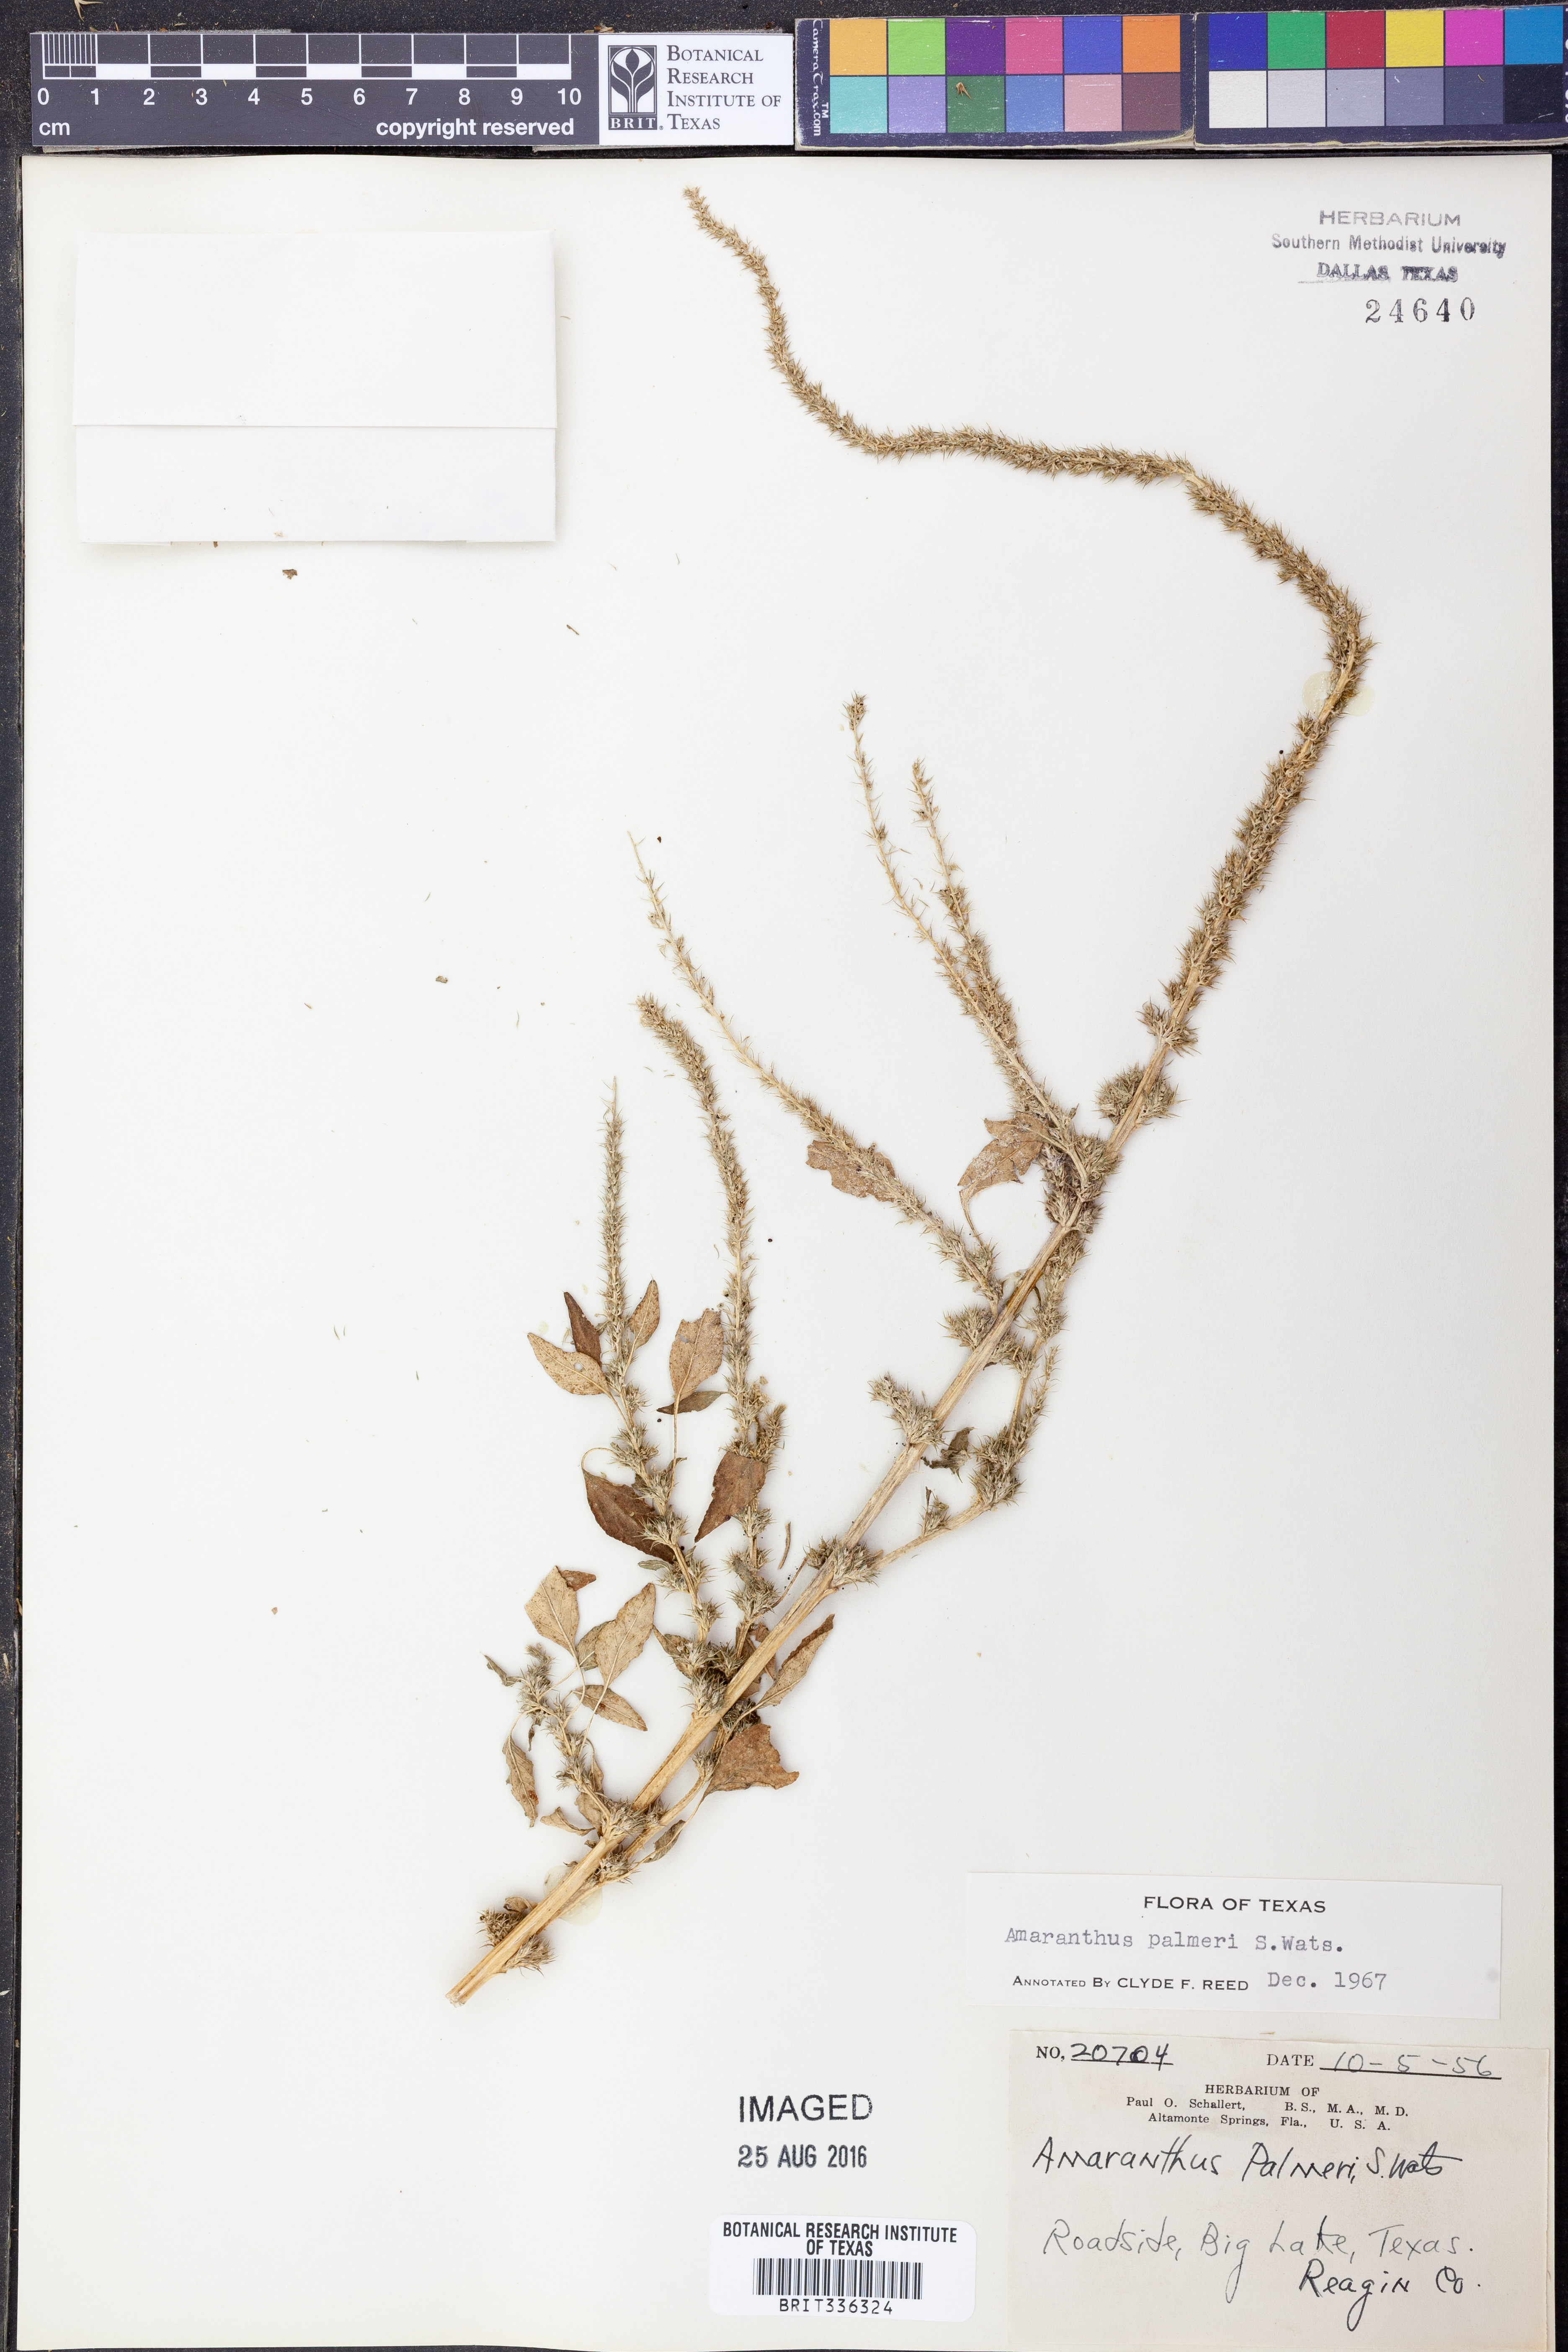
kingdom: Plantae
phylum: Tracheophyta
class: Magnoliopsida
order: Caryophyllales
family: Amaranthaceae
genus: Amaranthus
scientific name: Amaranthus palmeri
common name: Dioecious amaranth
